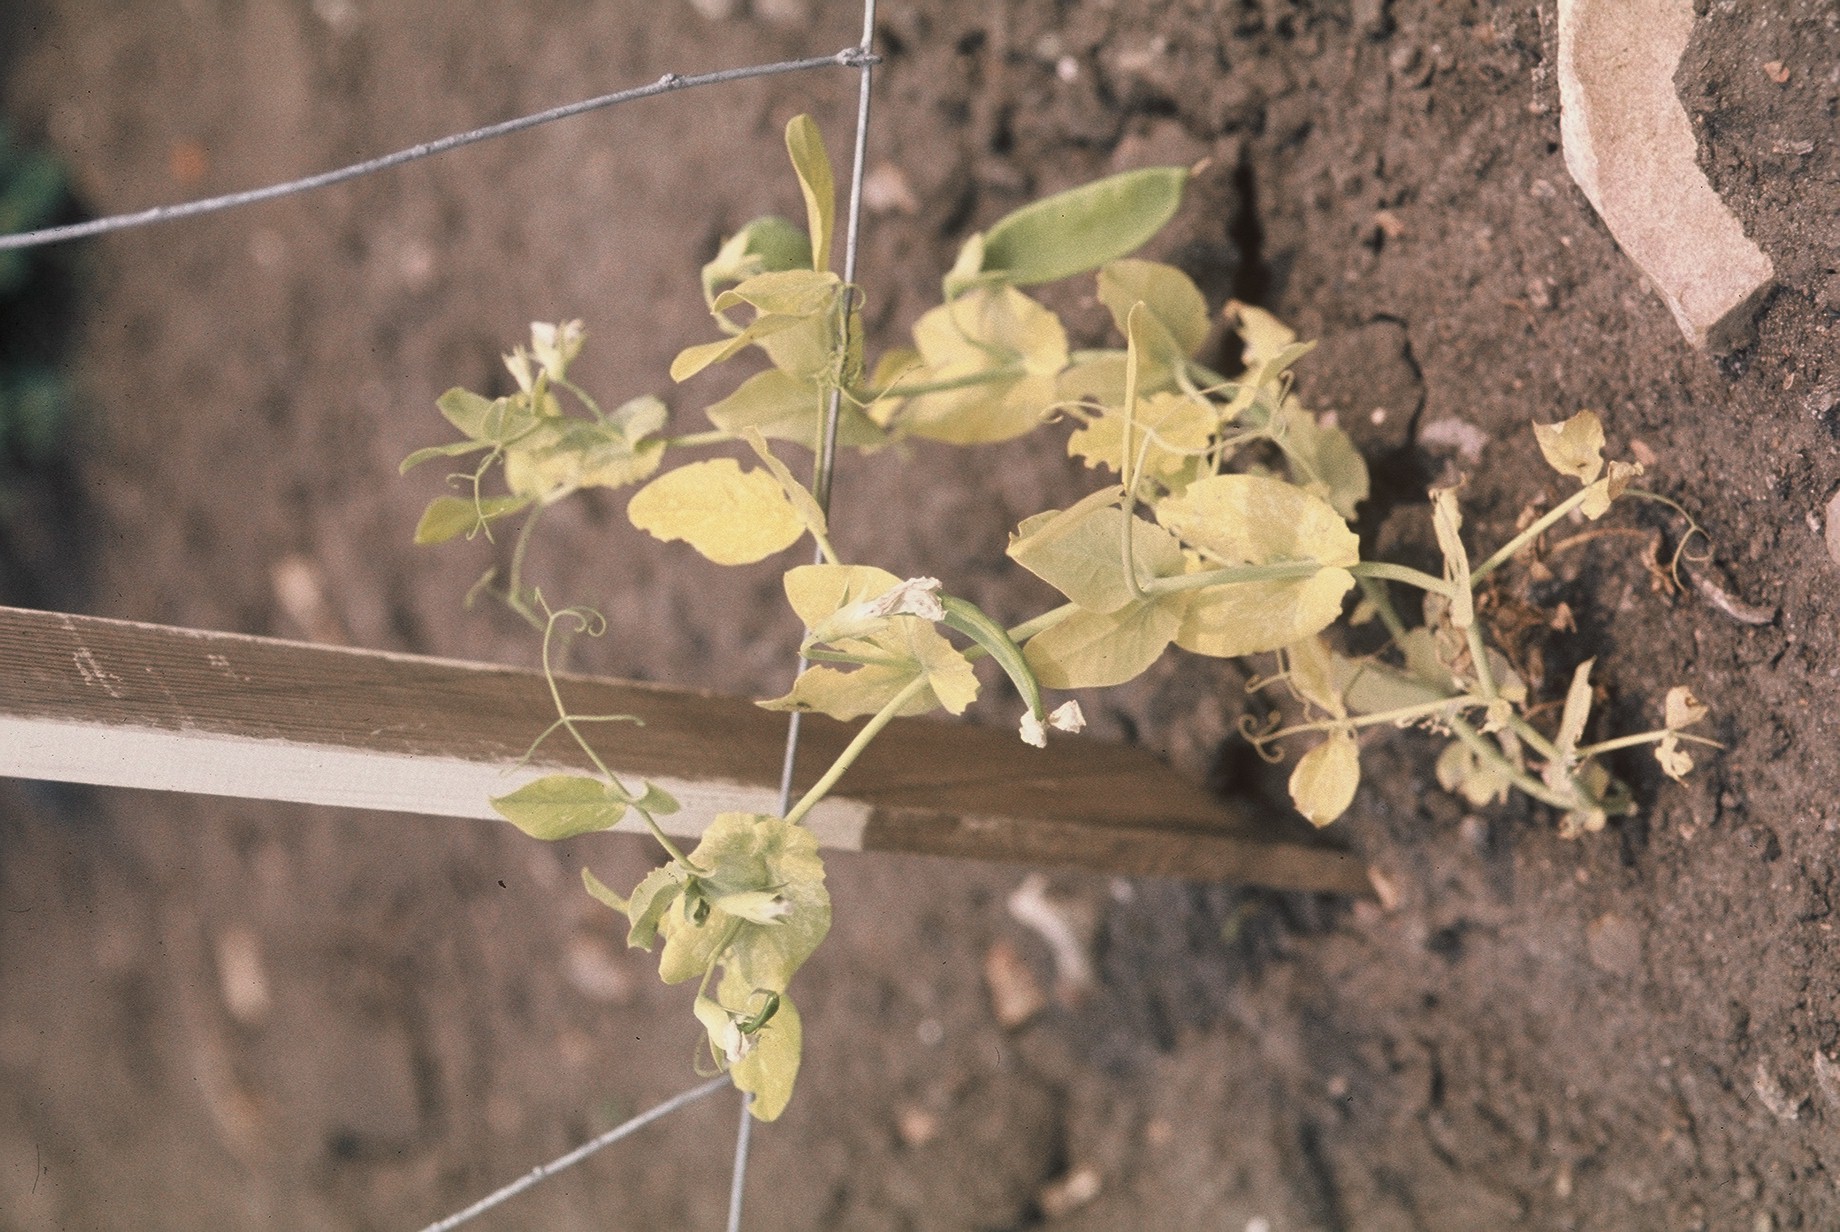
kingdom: Plantae
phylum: Tracheophyta
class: Magnoliopsida
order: Fabales
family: Fabaceae
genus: Lathyrus
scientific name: Lathyrus oleraceus
